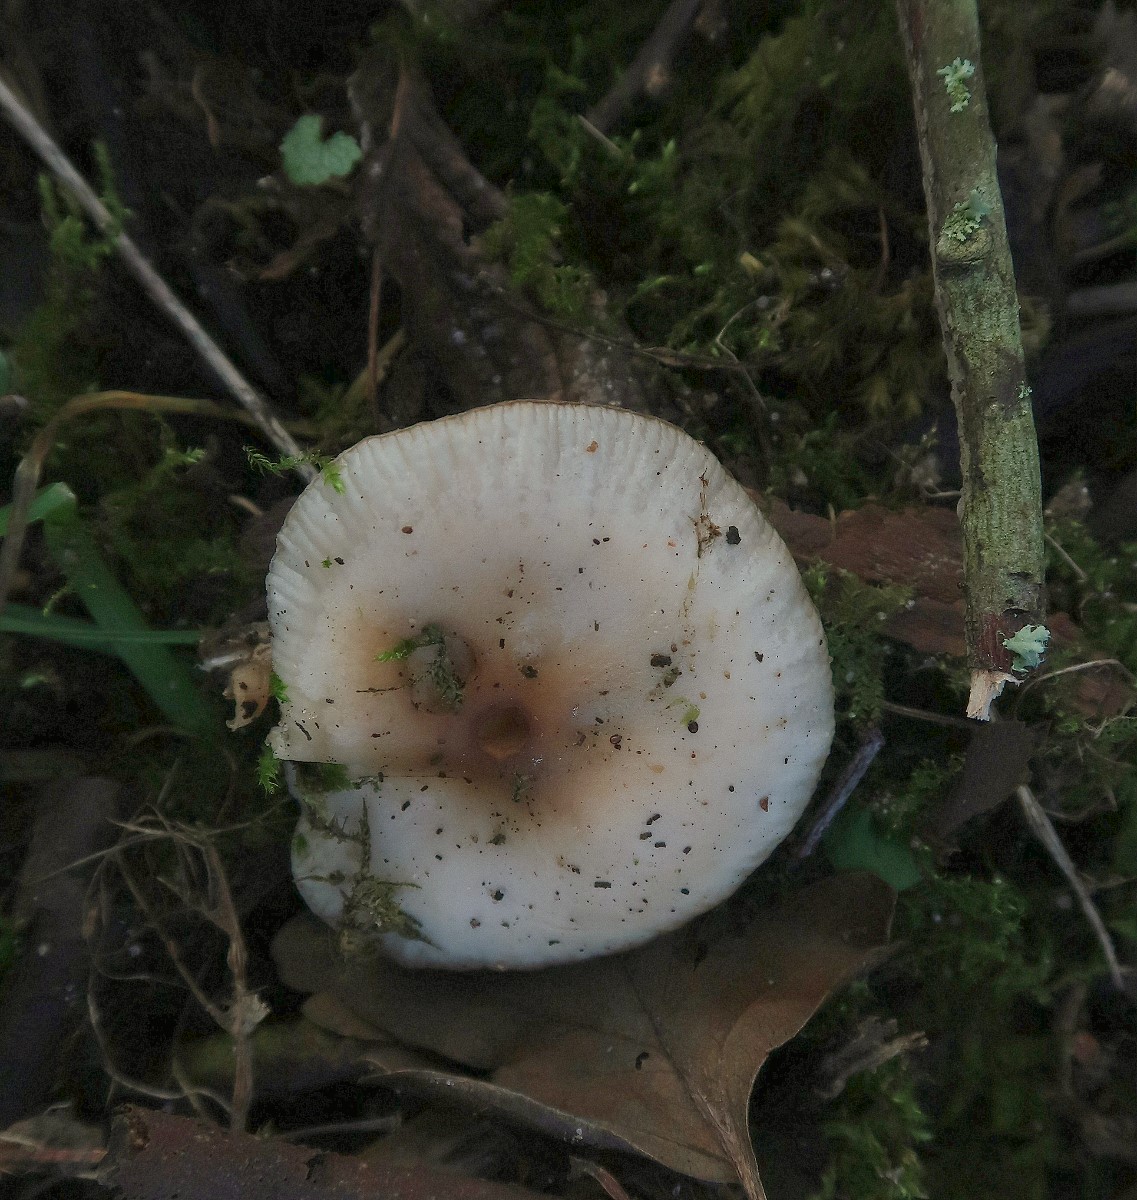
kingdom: Fungi
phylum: Basidiomycota
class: Agaricomycetes
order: Agaricales
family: Physalacriaceae
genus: Flammulina
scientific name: Flammulina fennae
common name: rodslående fløjlsfod
